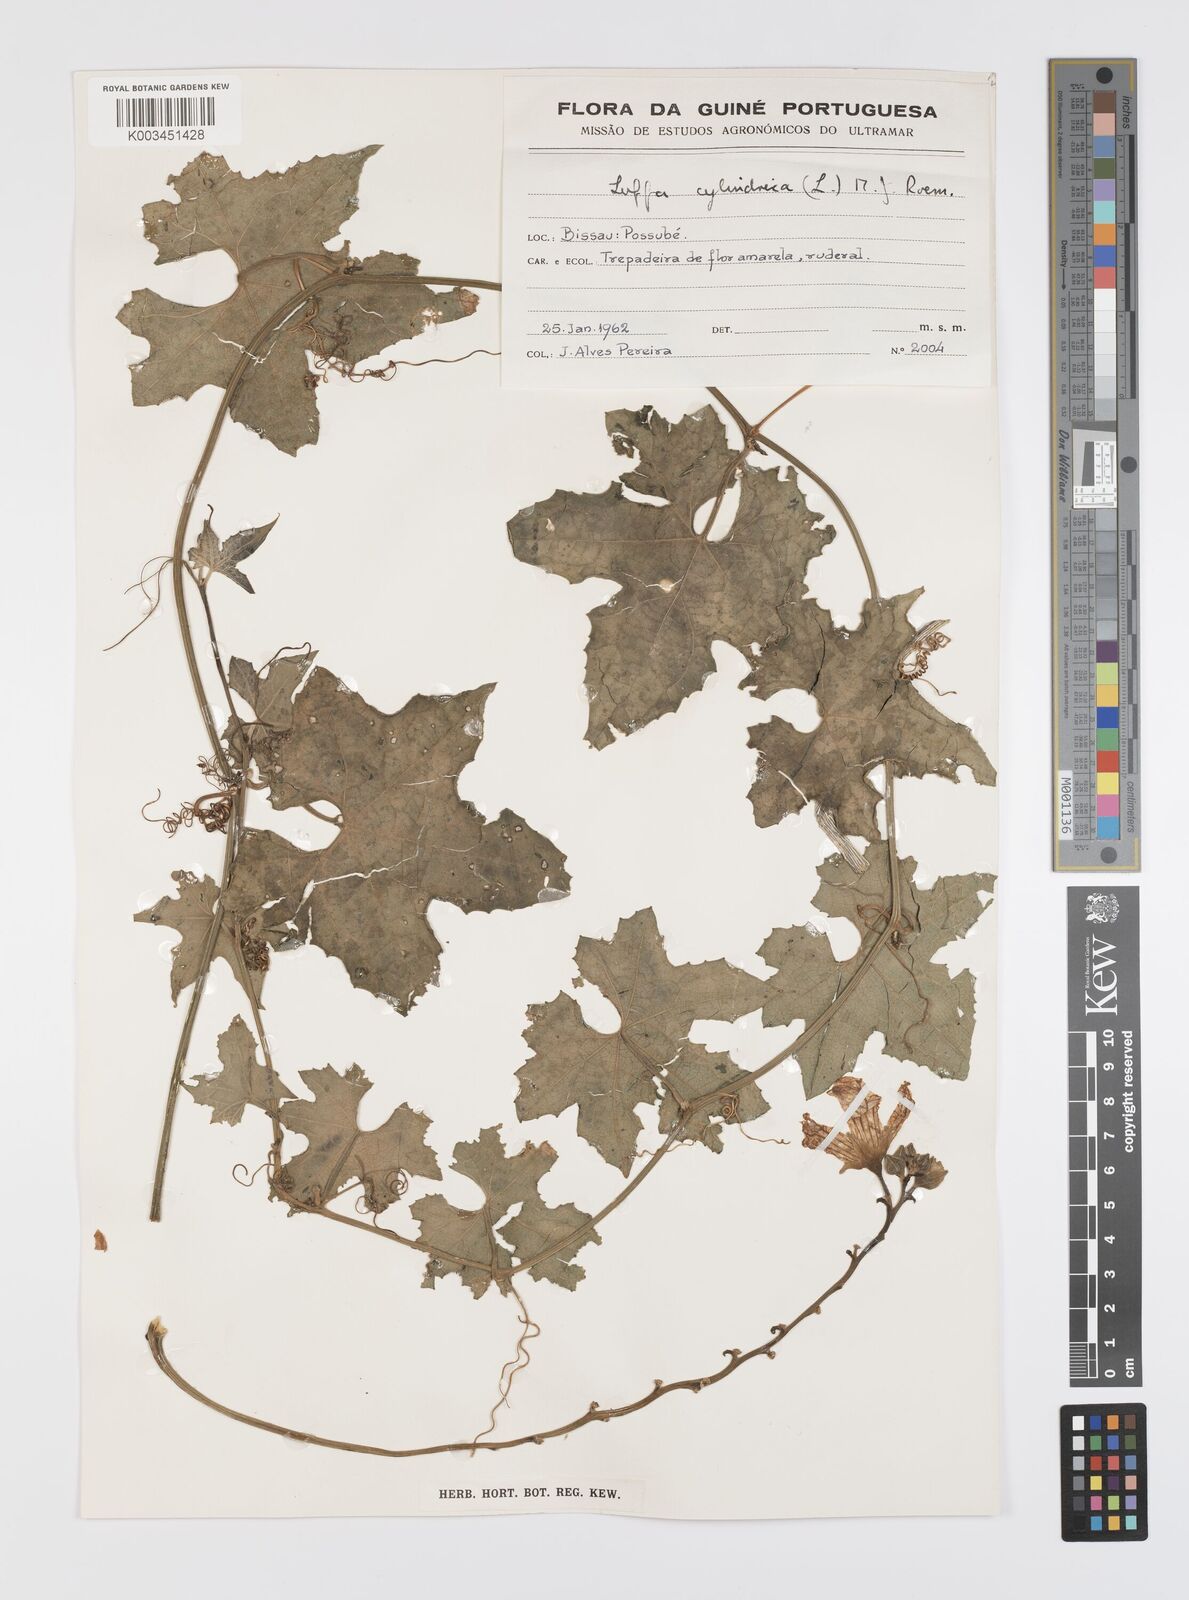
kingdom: Plantae
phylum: Tracheophyta
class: Magnoliopsida
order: Cucurbitales
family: Cucurbitaceae
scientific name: Cucurbitaceae
